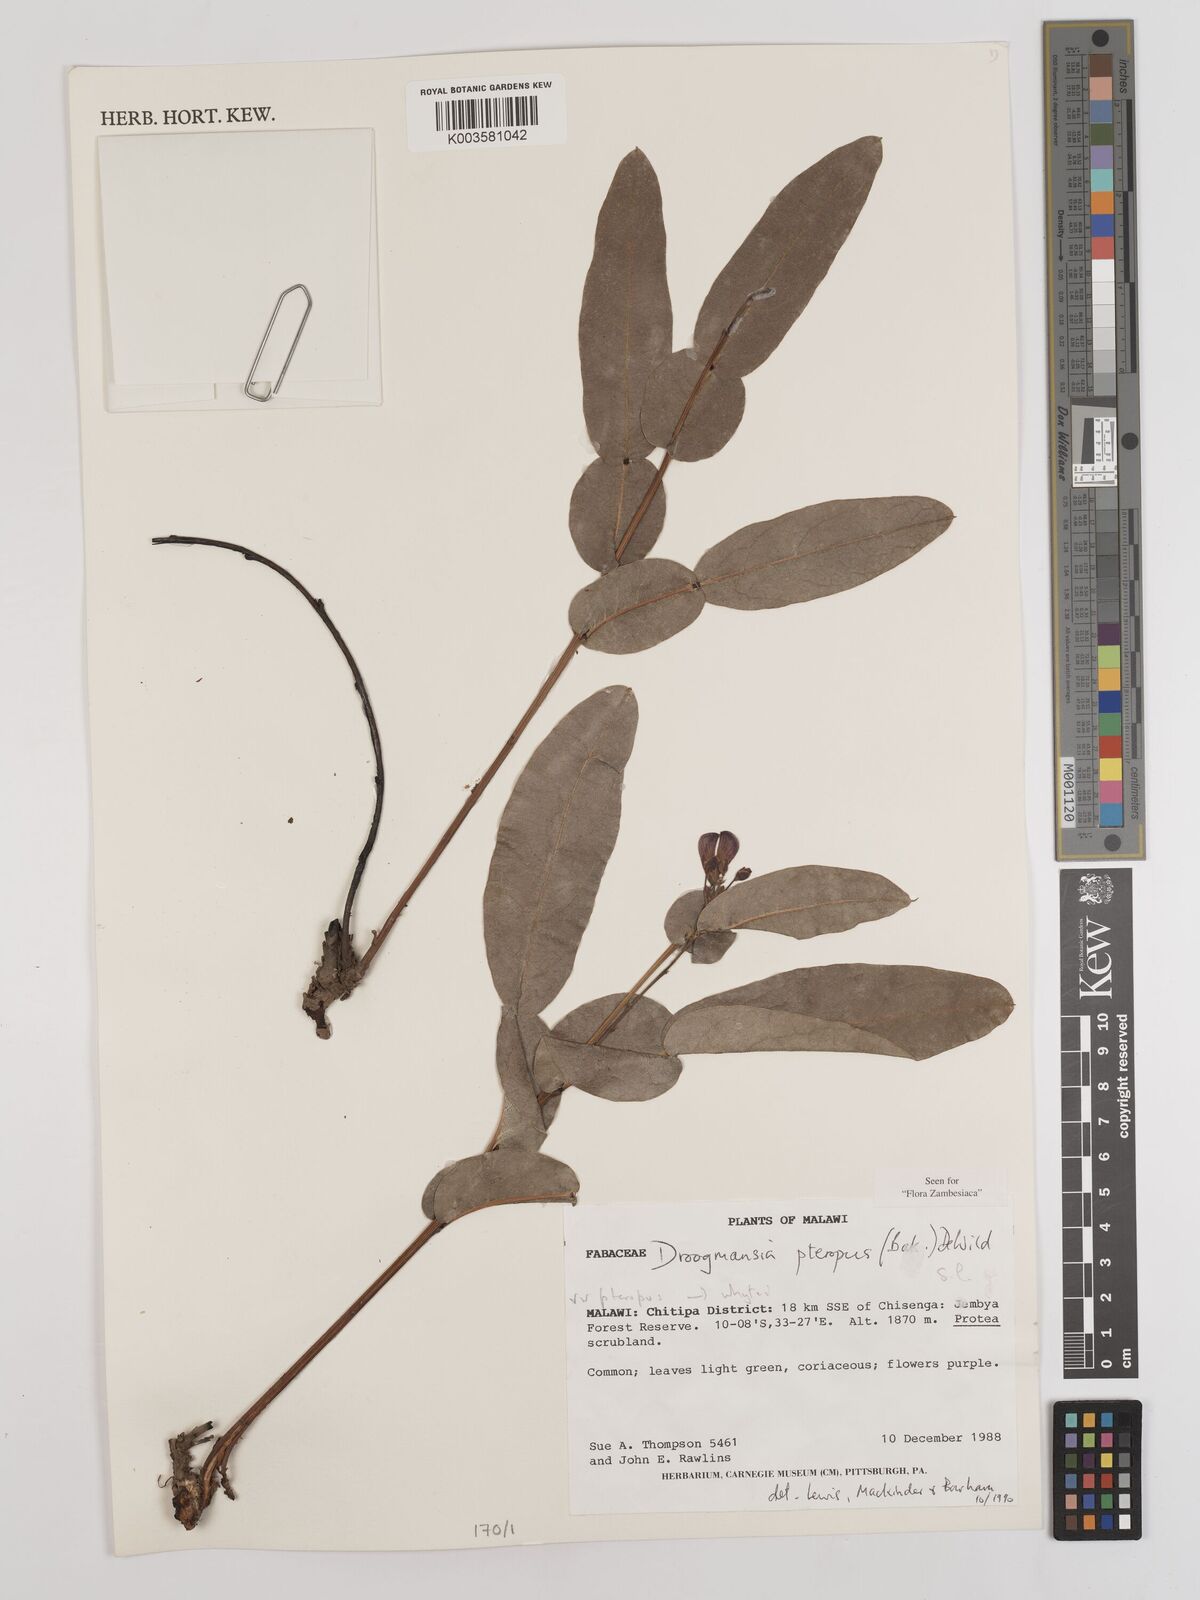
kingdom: Plantae
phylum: Tracheophyta
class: Magnoliopsida
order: Fabales
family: Fabaceae
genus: Droogmansia
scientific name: Droogmansia pteropus
